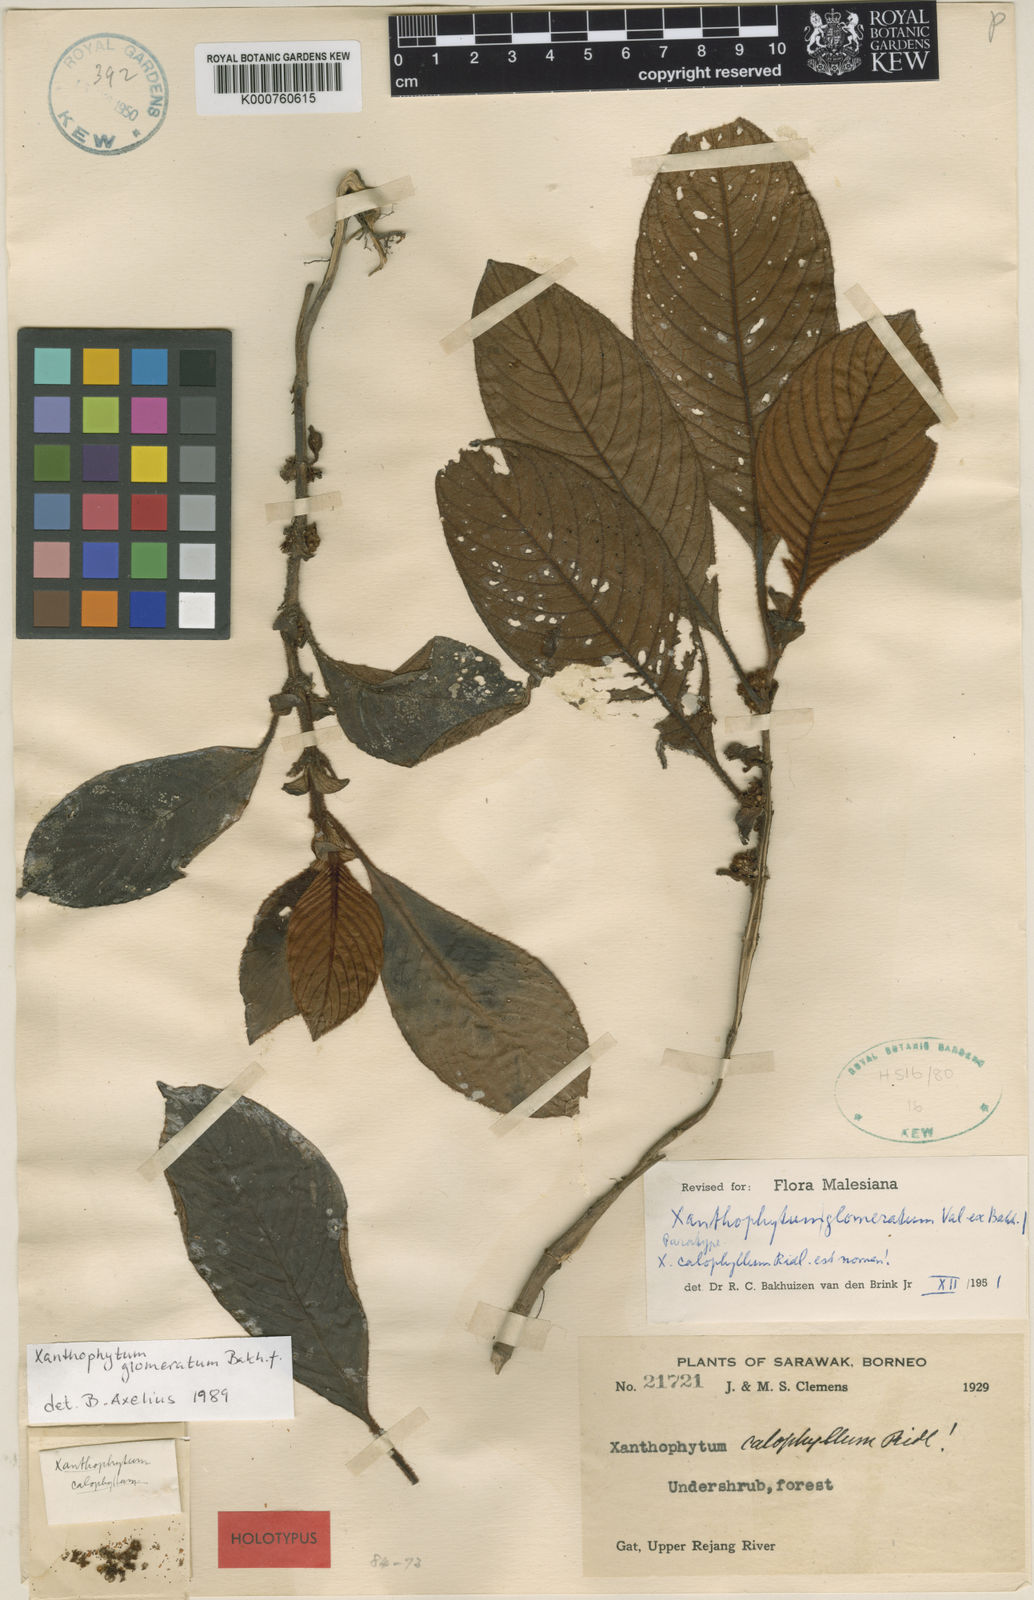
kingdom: Plantae
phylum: Tracheophyta
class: Magnoliopsida
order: Gentianales
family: Rubiaceae
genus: Xanthophytum
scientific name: Xanthophytum glomeratum
